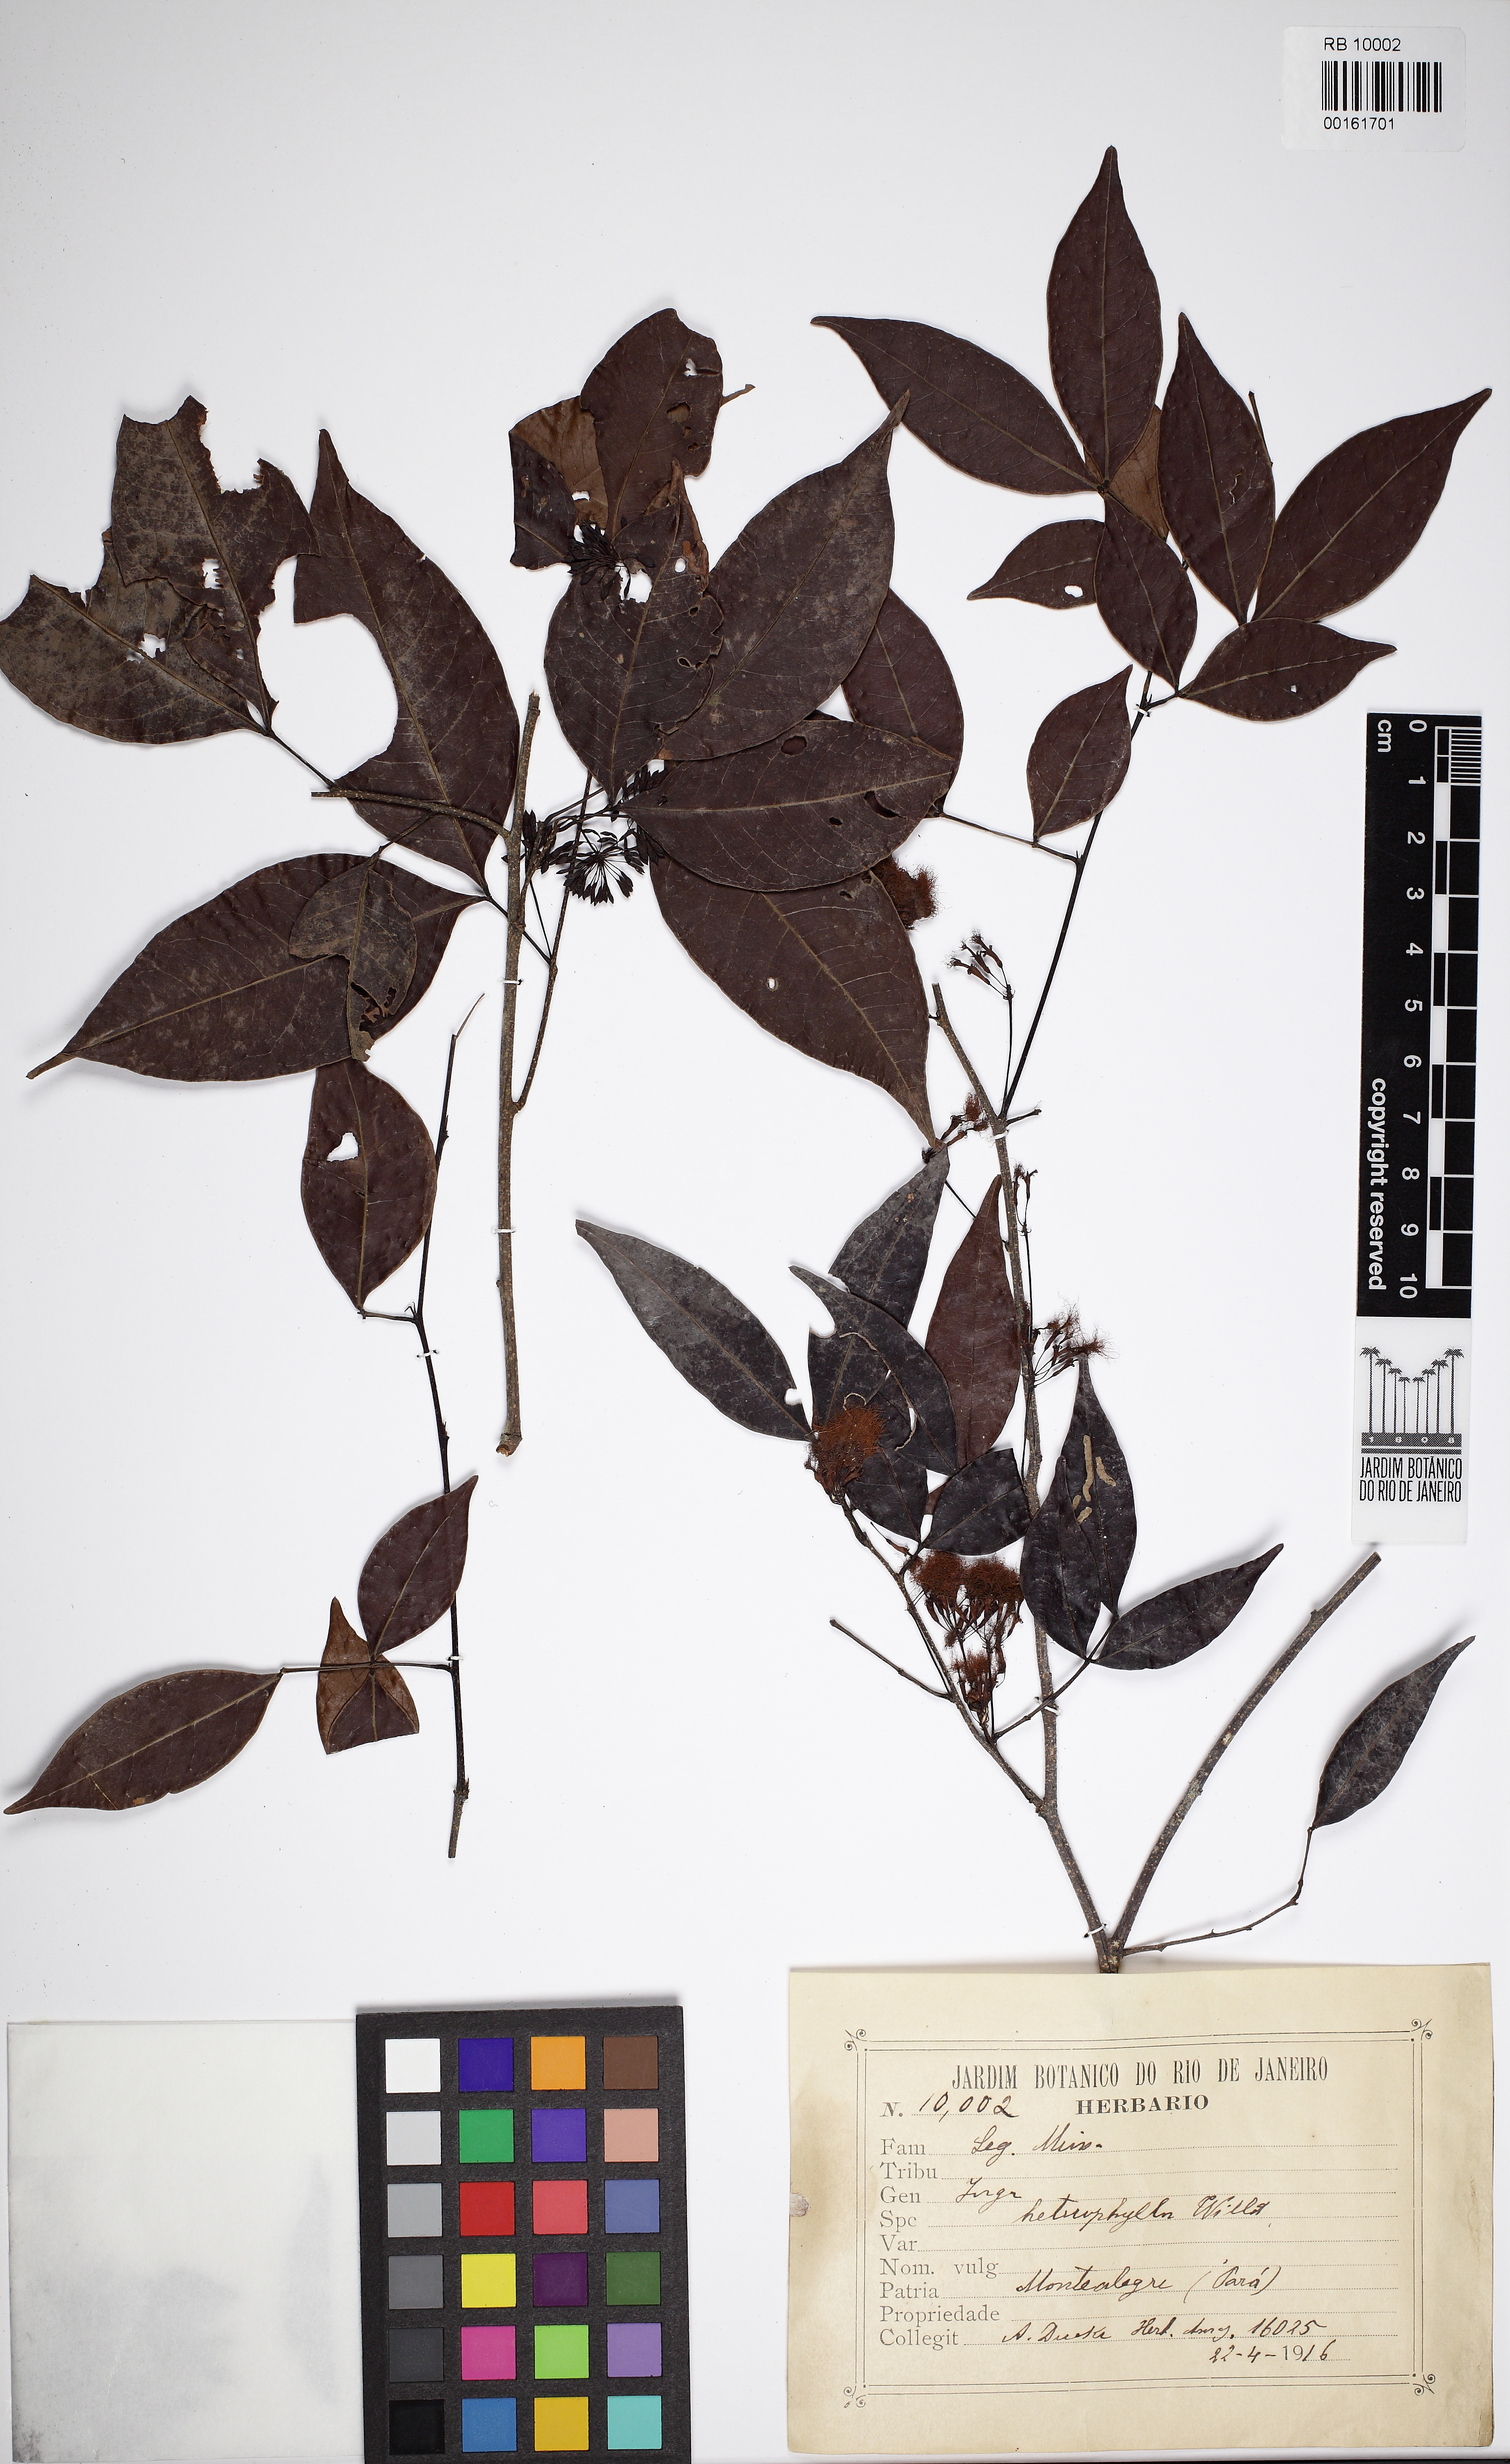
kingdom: Plantae
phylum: Tracheophyta
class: Magnoliopsida
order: Fabales
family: Fabaceae
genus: Inga
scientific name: Inga heterophylla
